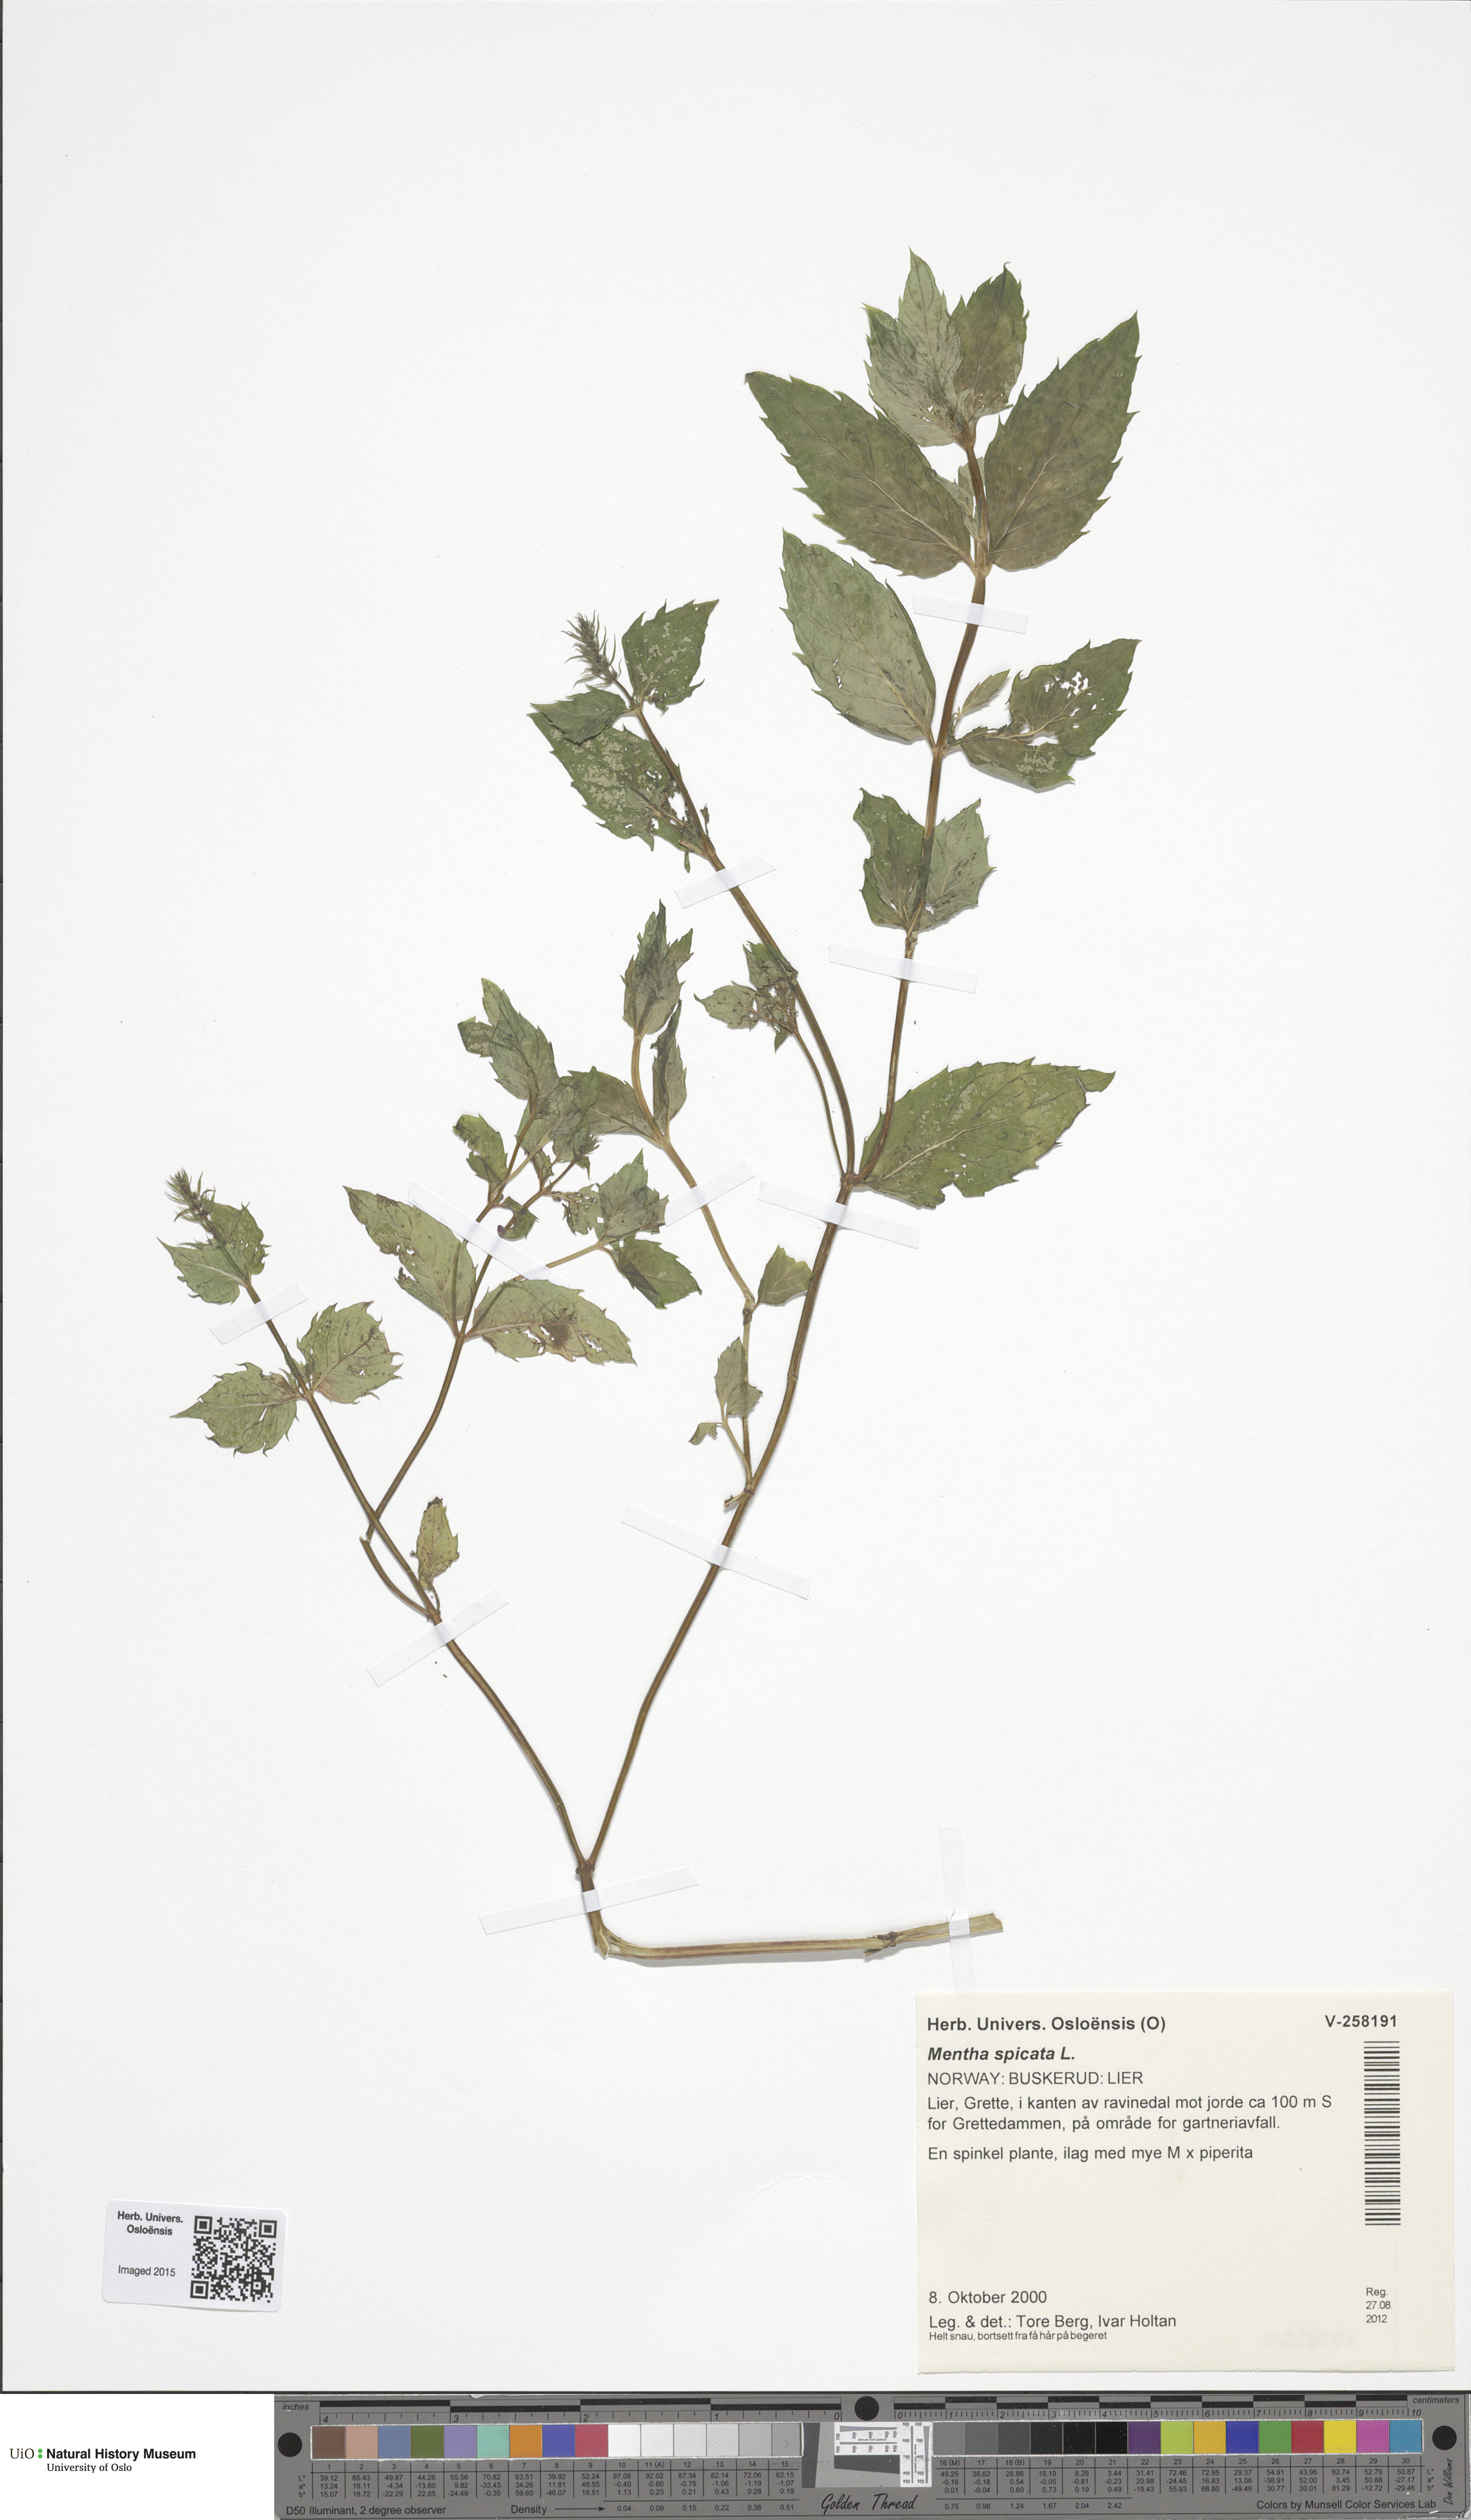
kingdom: Plantae
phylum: Tracheophyta
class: Magnoliopsida
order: Lamiales
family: Lamiaceae
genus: Mentha
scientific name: Mentha spicata
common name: Spearmint
